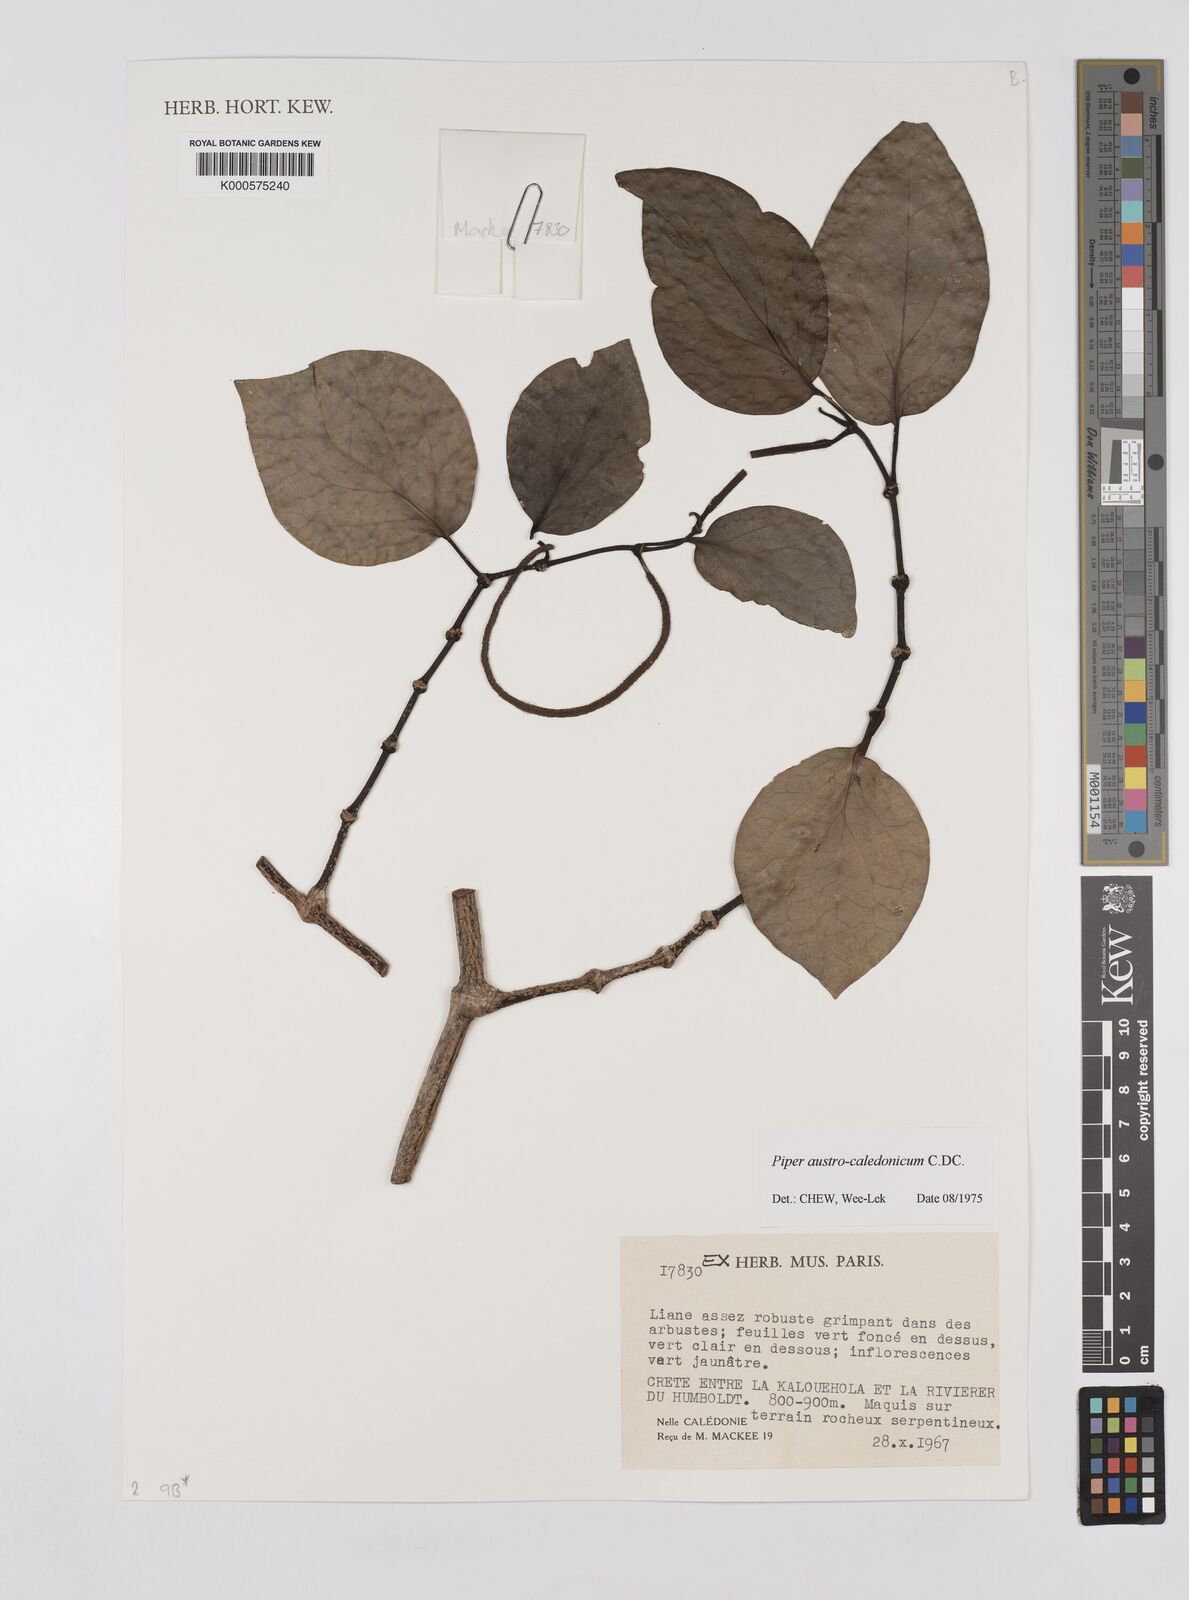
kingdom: Plantae
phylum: Tracheophyta
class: Magnoliopsida
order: Piperales
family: Piperaceae
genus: Piper
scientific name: Piper insectifugum
